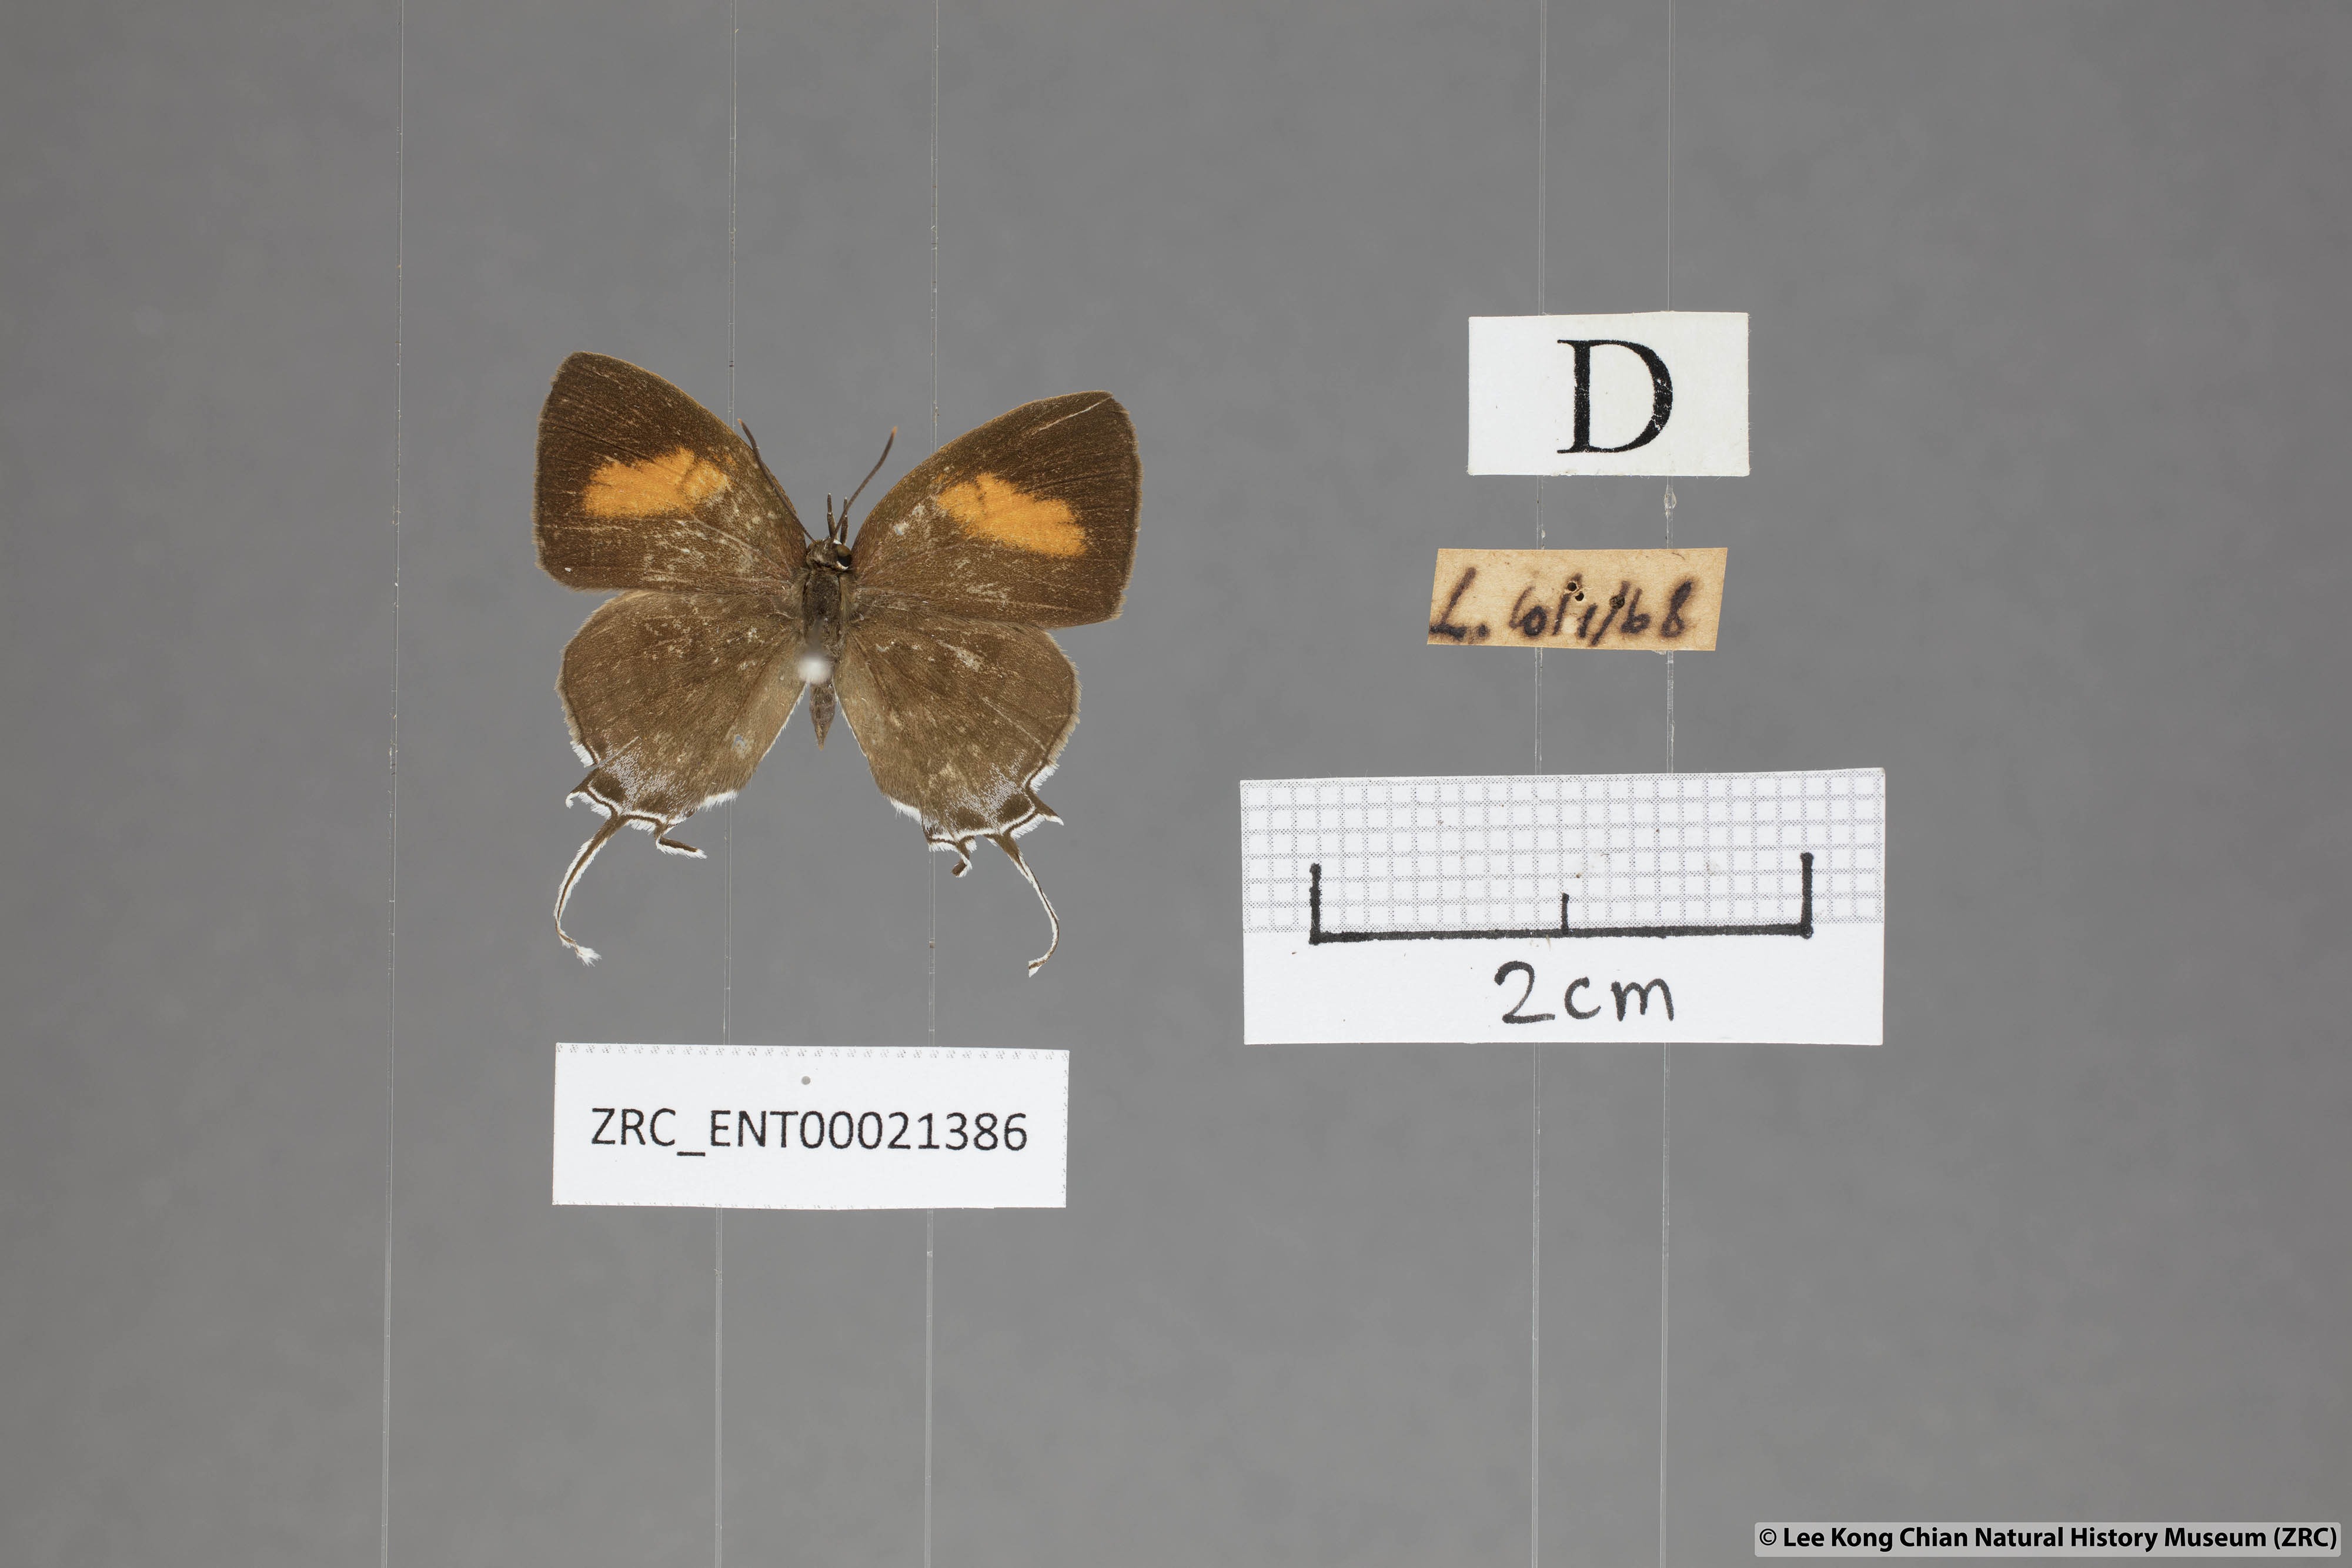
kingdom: Animalia
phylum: Arthropoda
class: Insecta
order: Lepidoptera
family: Lycaenidae
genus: Drupadia
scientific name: Drupadia niasica
